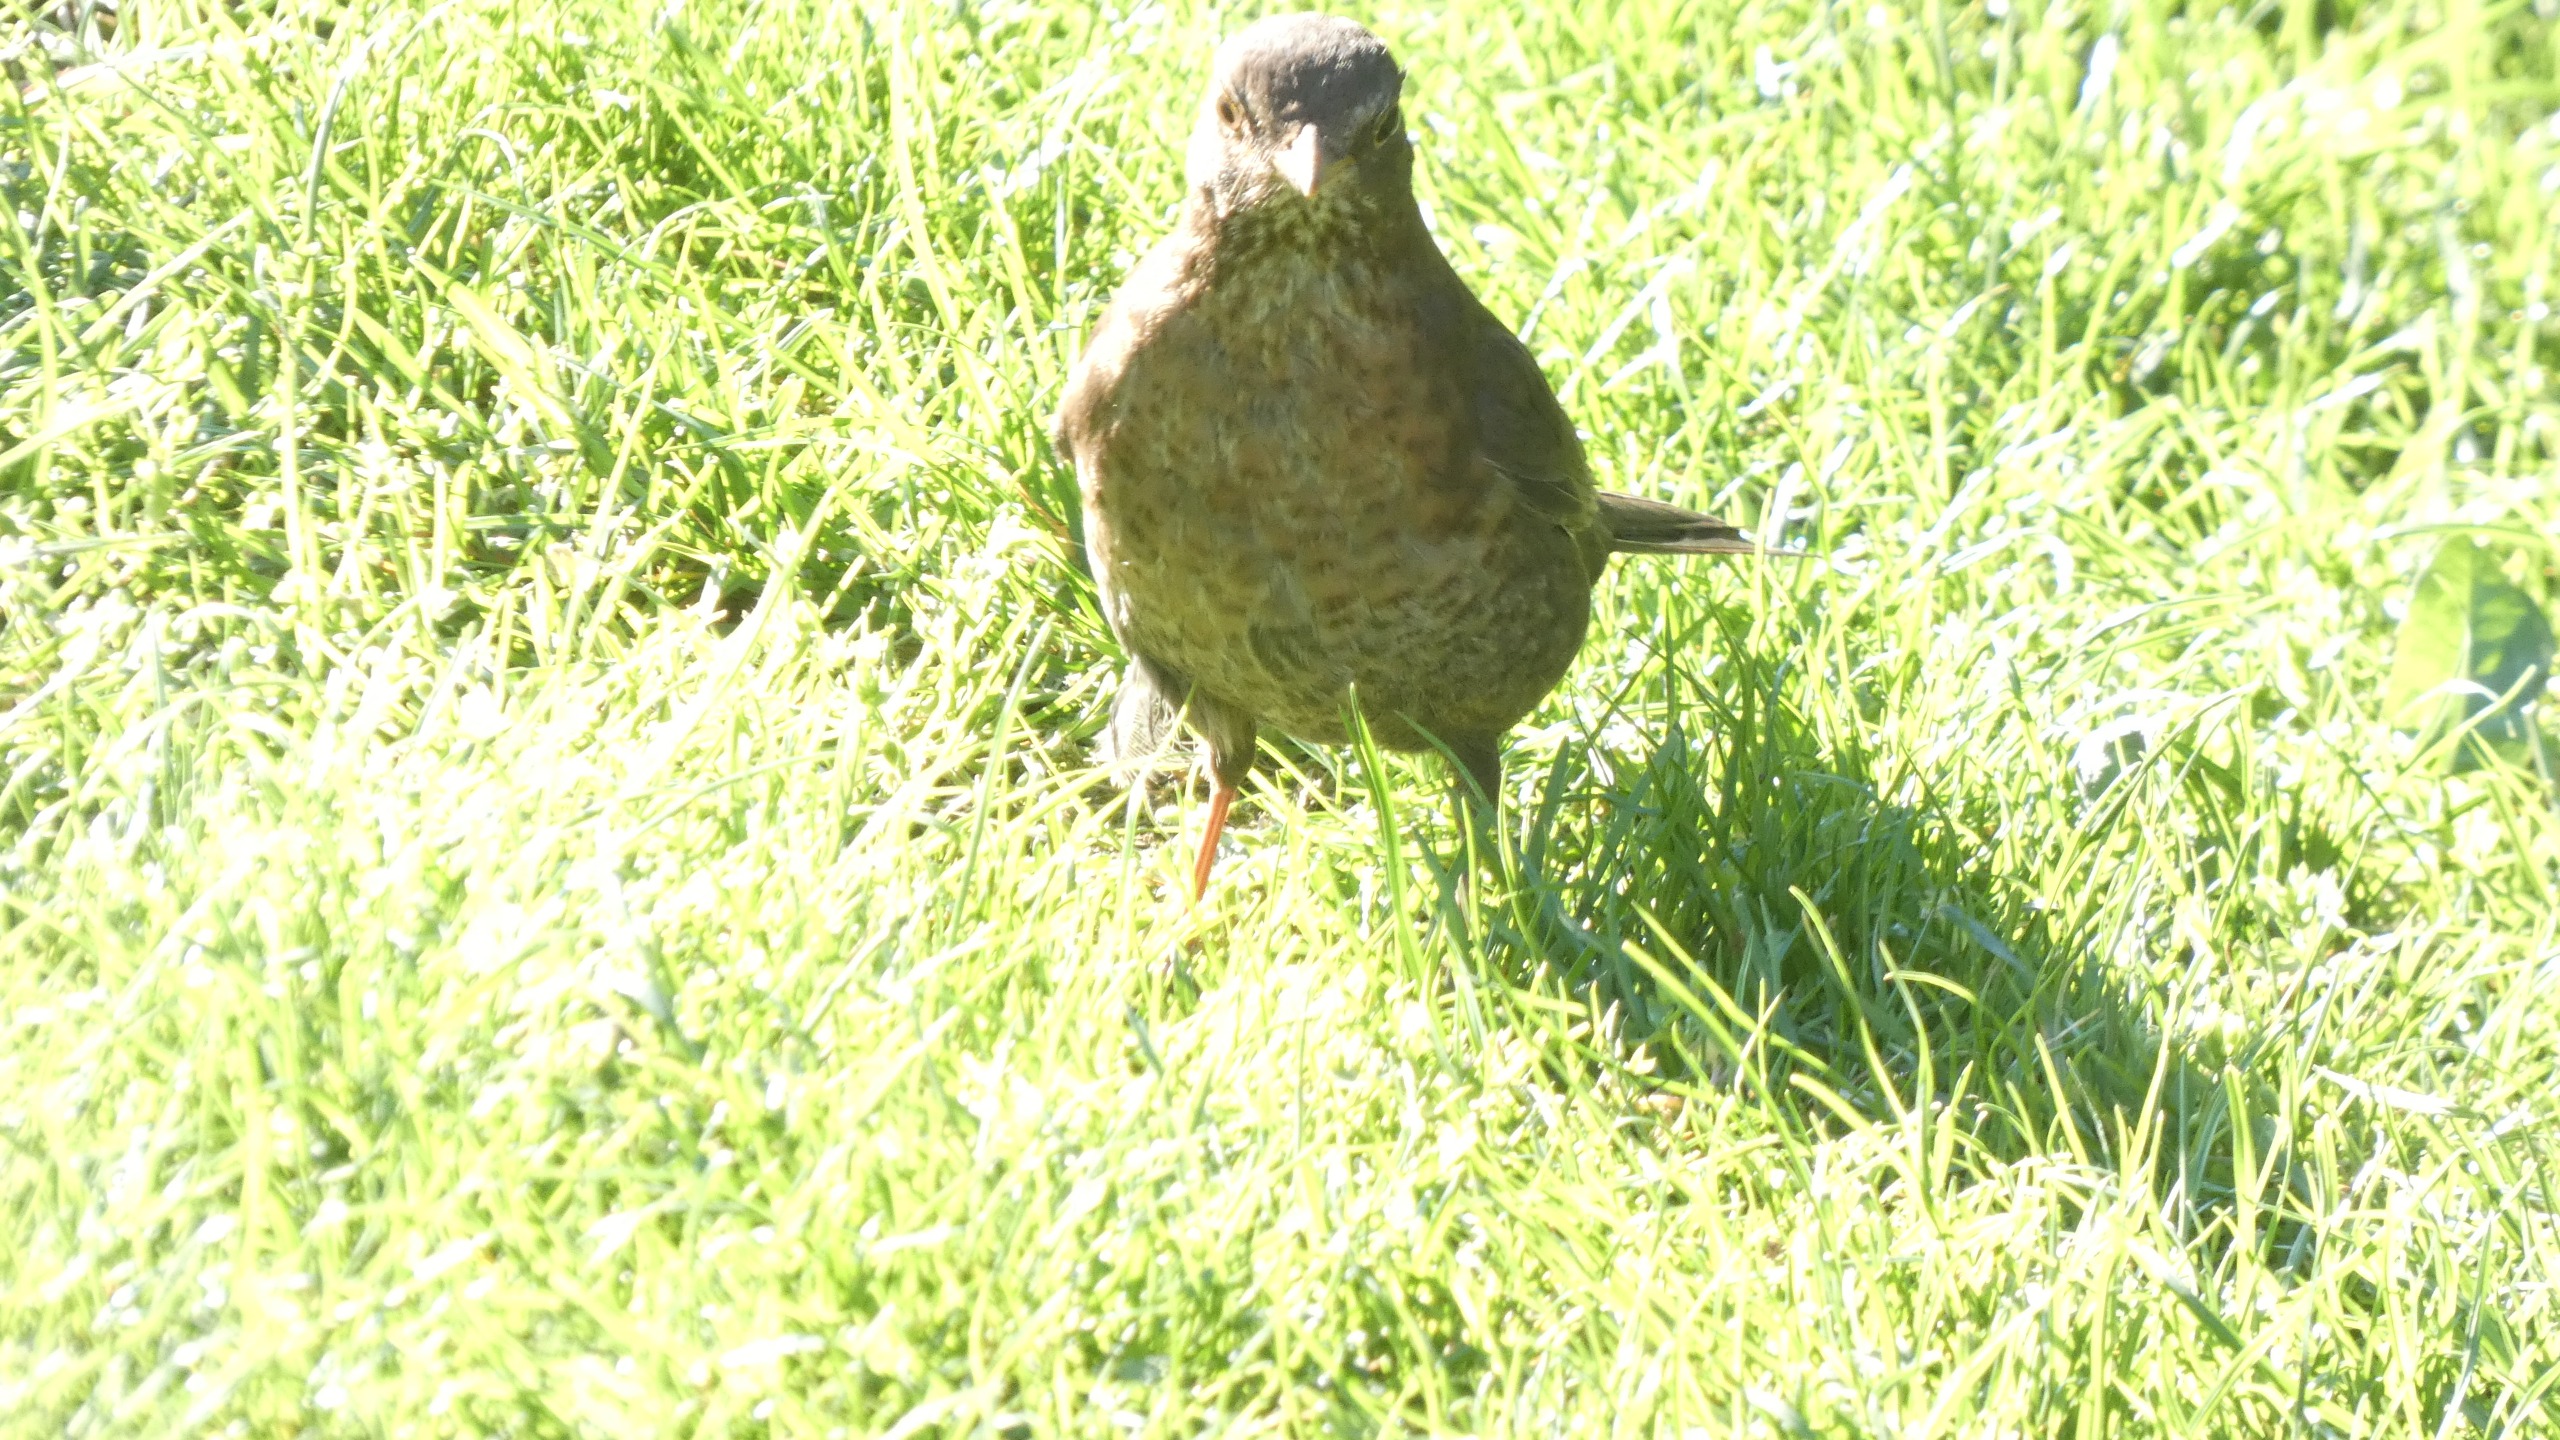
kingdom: Animalia
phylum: Chordata
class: Aves
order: Passeriformes
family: Turdidae
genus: Turdus
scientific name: Turdus merula
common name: Solsort
